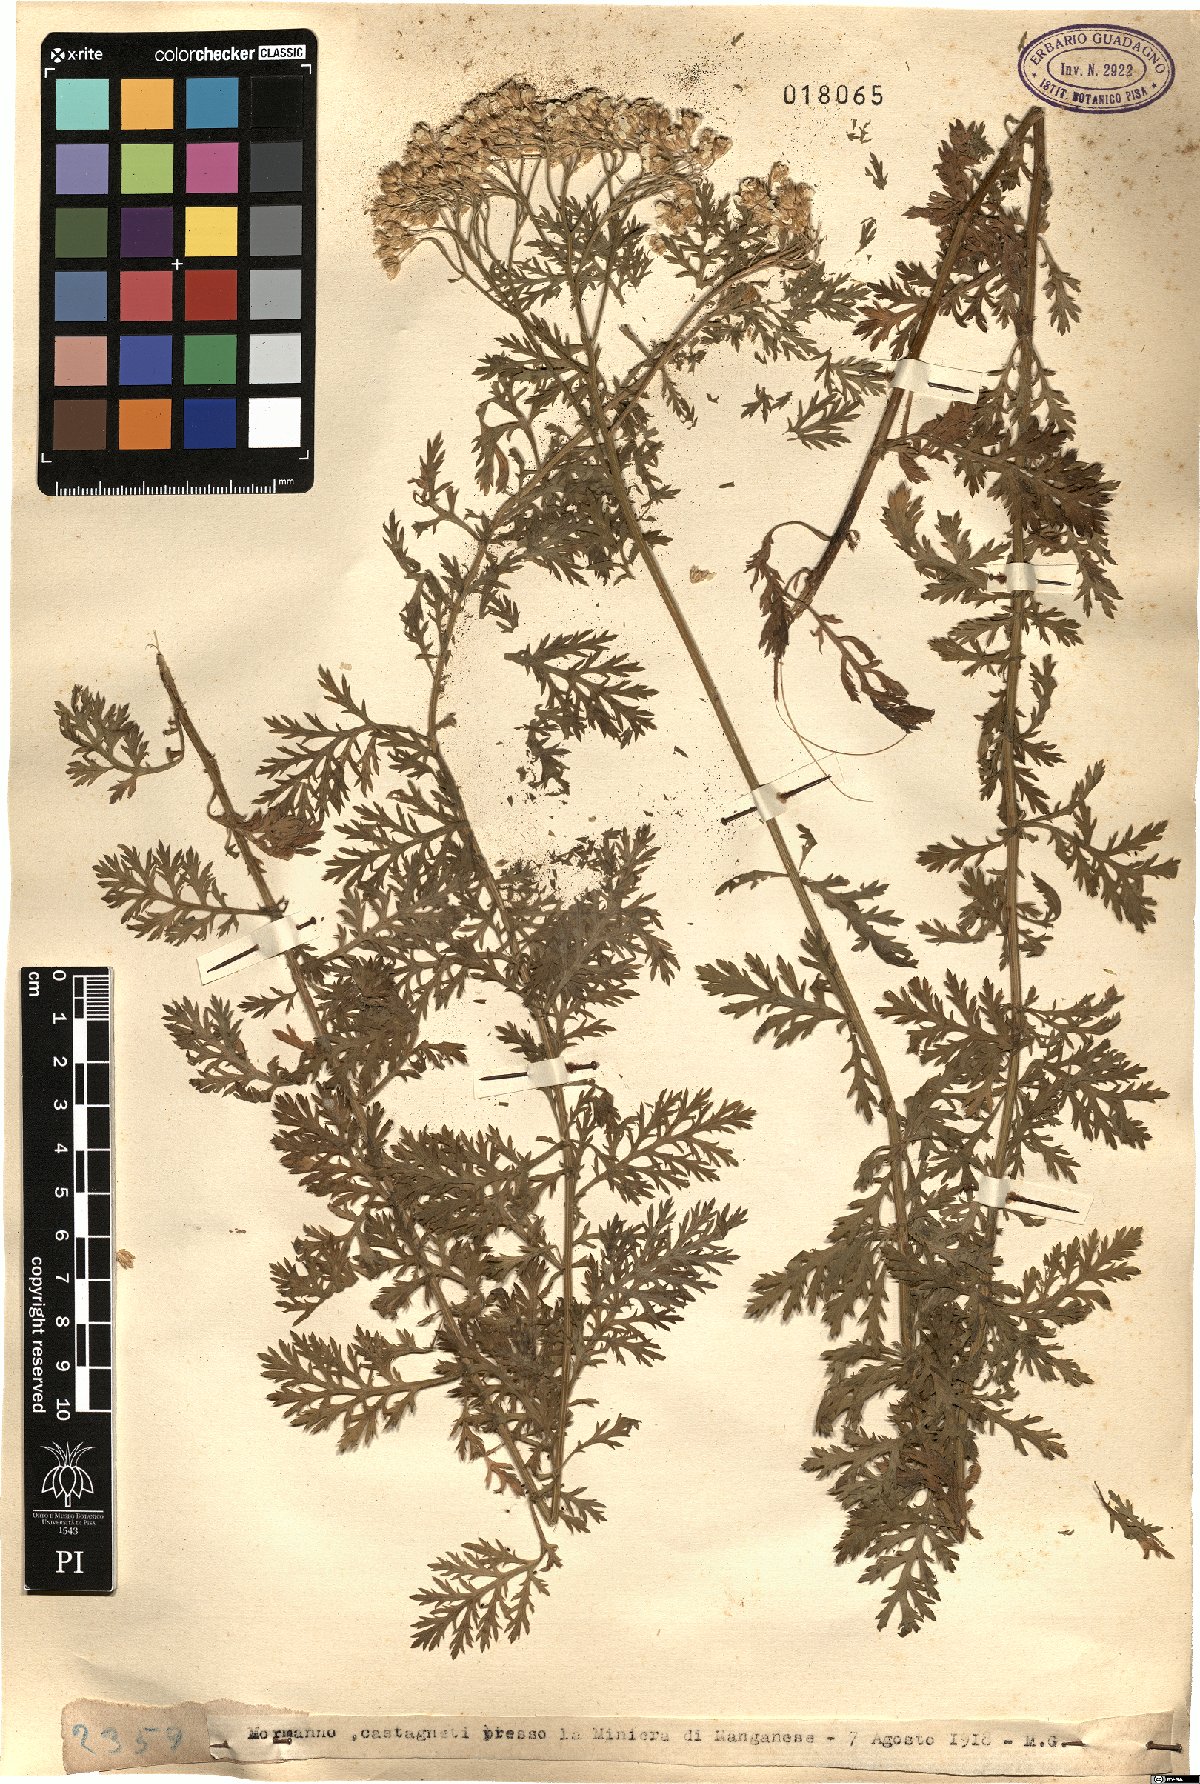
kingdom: Plantae
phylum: Tracheophyta
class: Magnoliopsida
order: Asterales
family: Asteraceae
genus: Achillea
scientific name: Achillea
